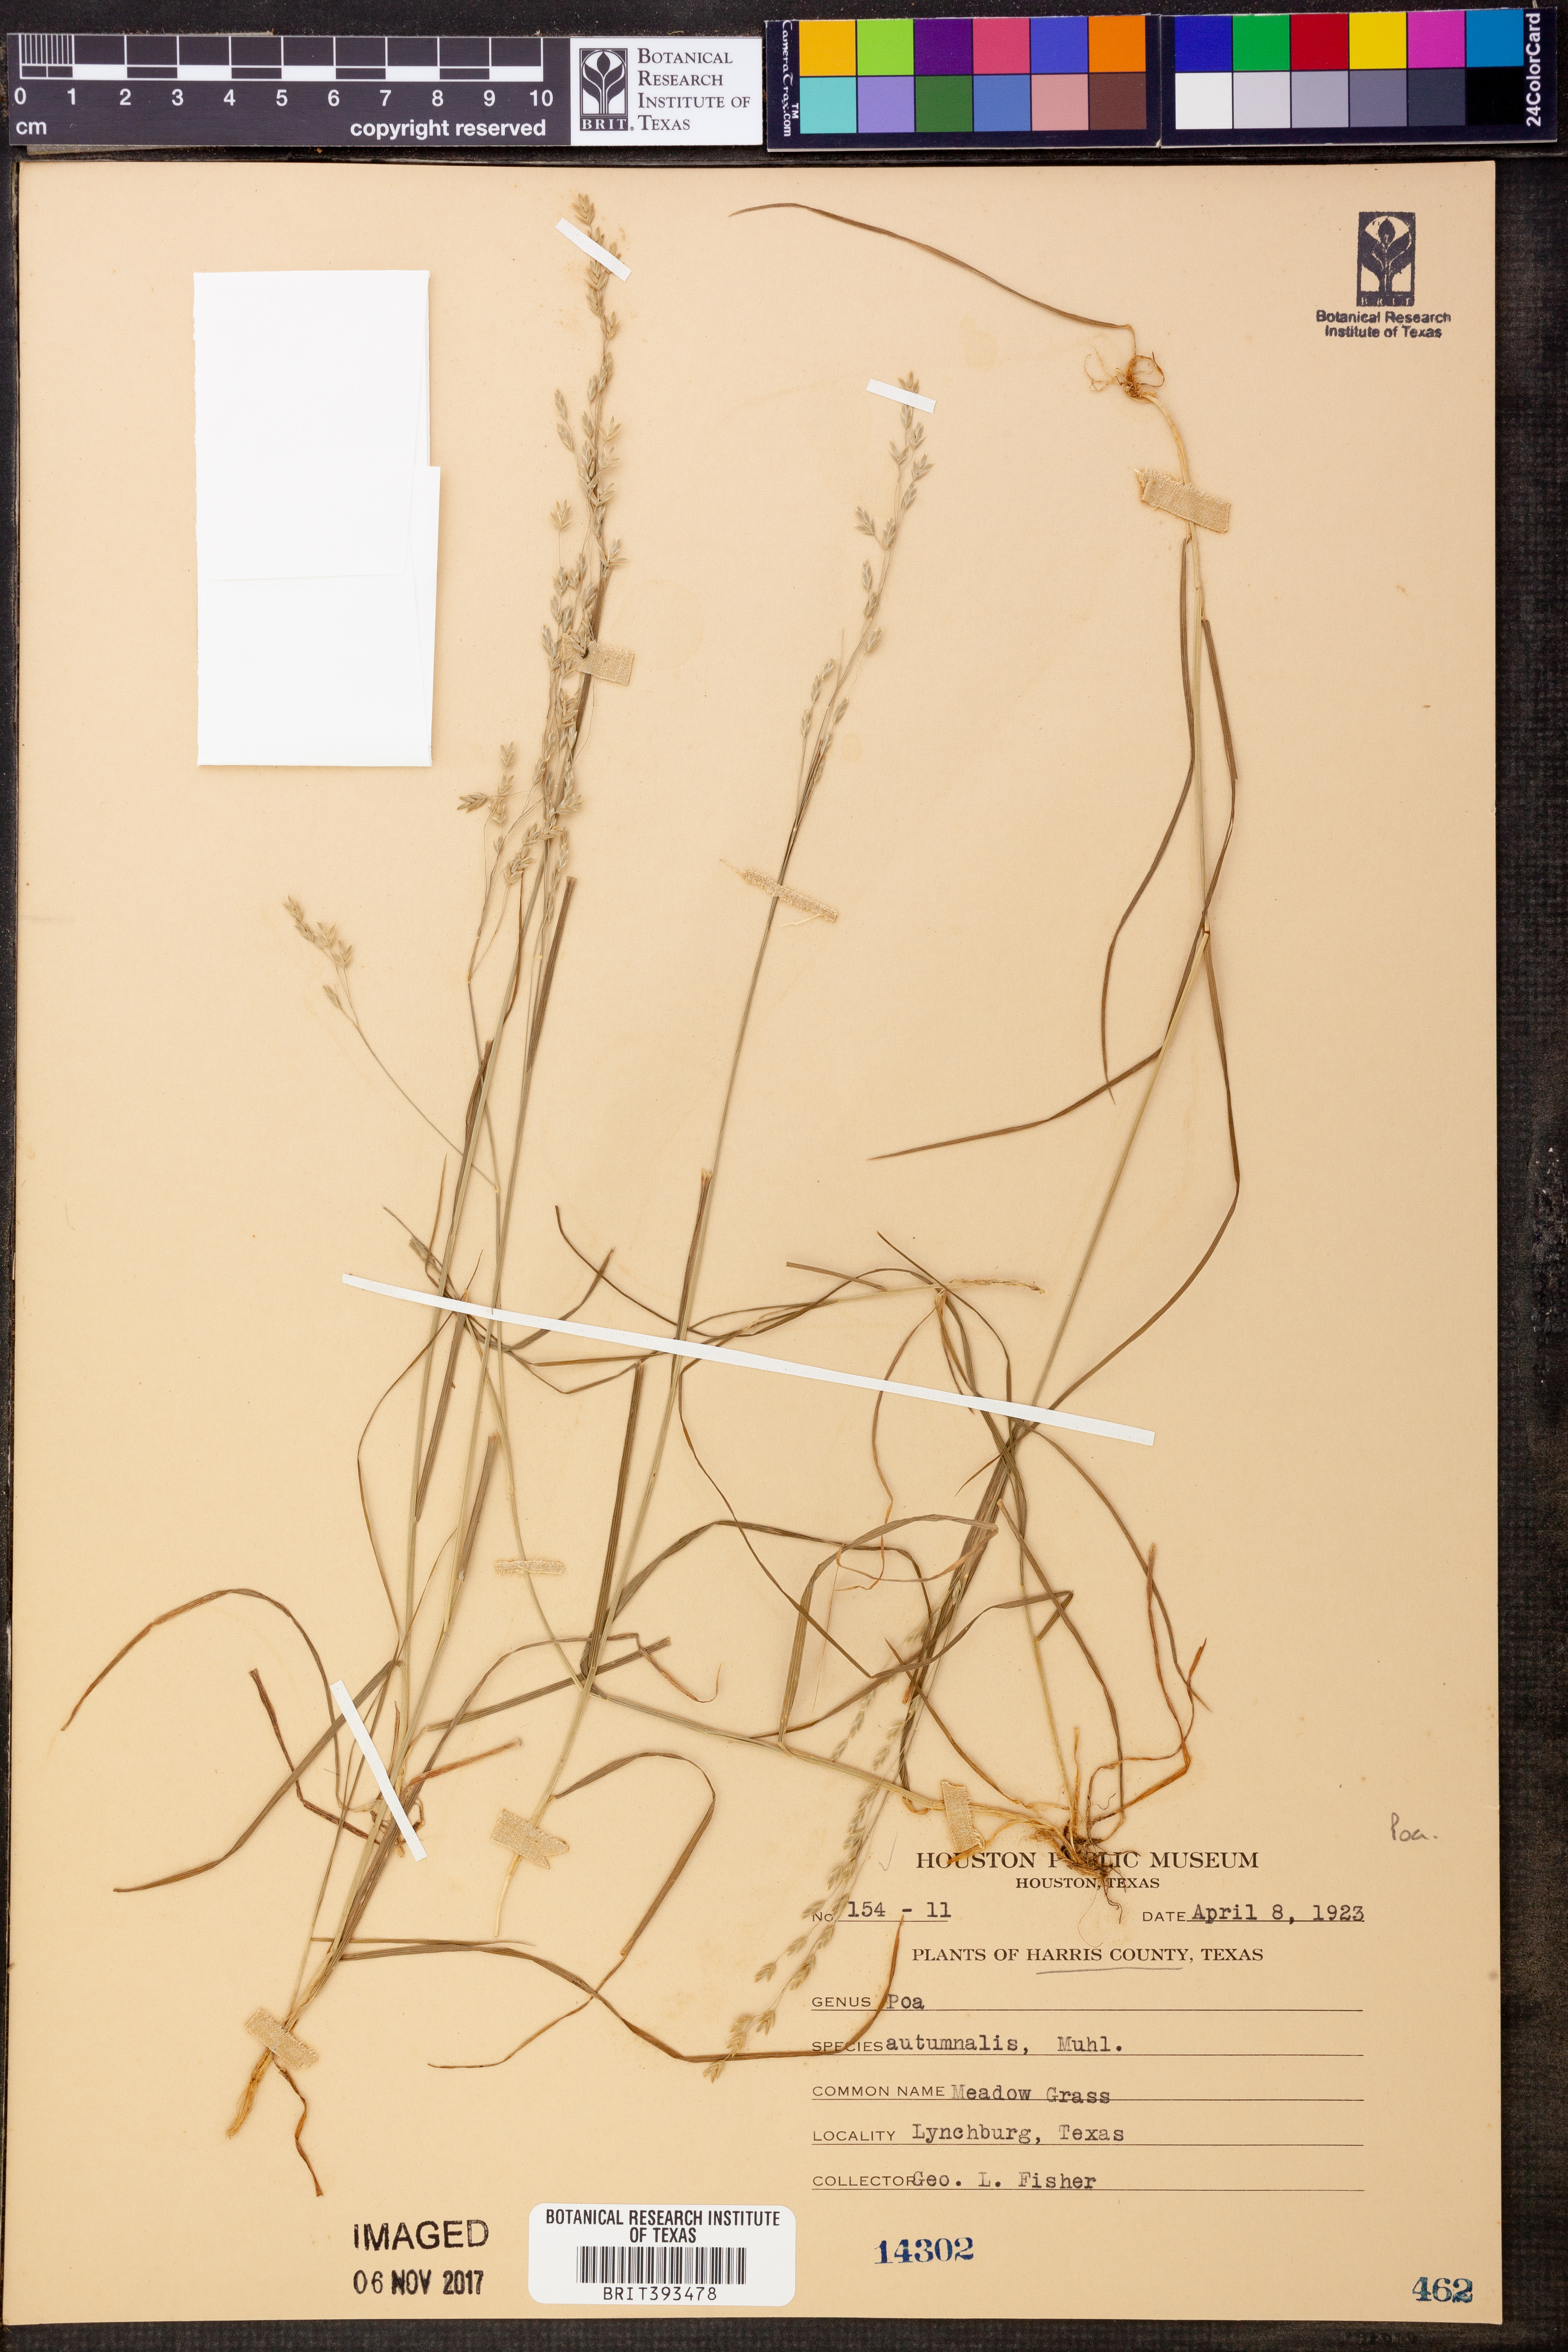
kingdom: Plantae
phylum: Tracheophyta
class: Liliopsida
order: Poales
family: Poaceae
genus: Poa
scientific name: Poa autumnalis
